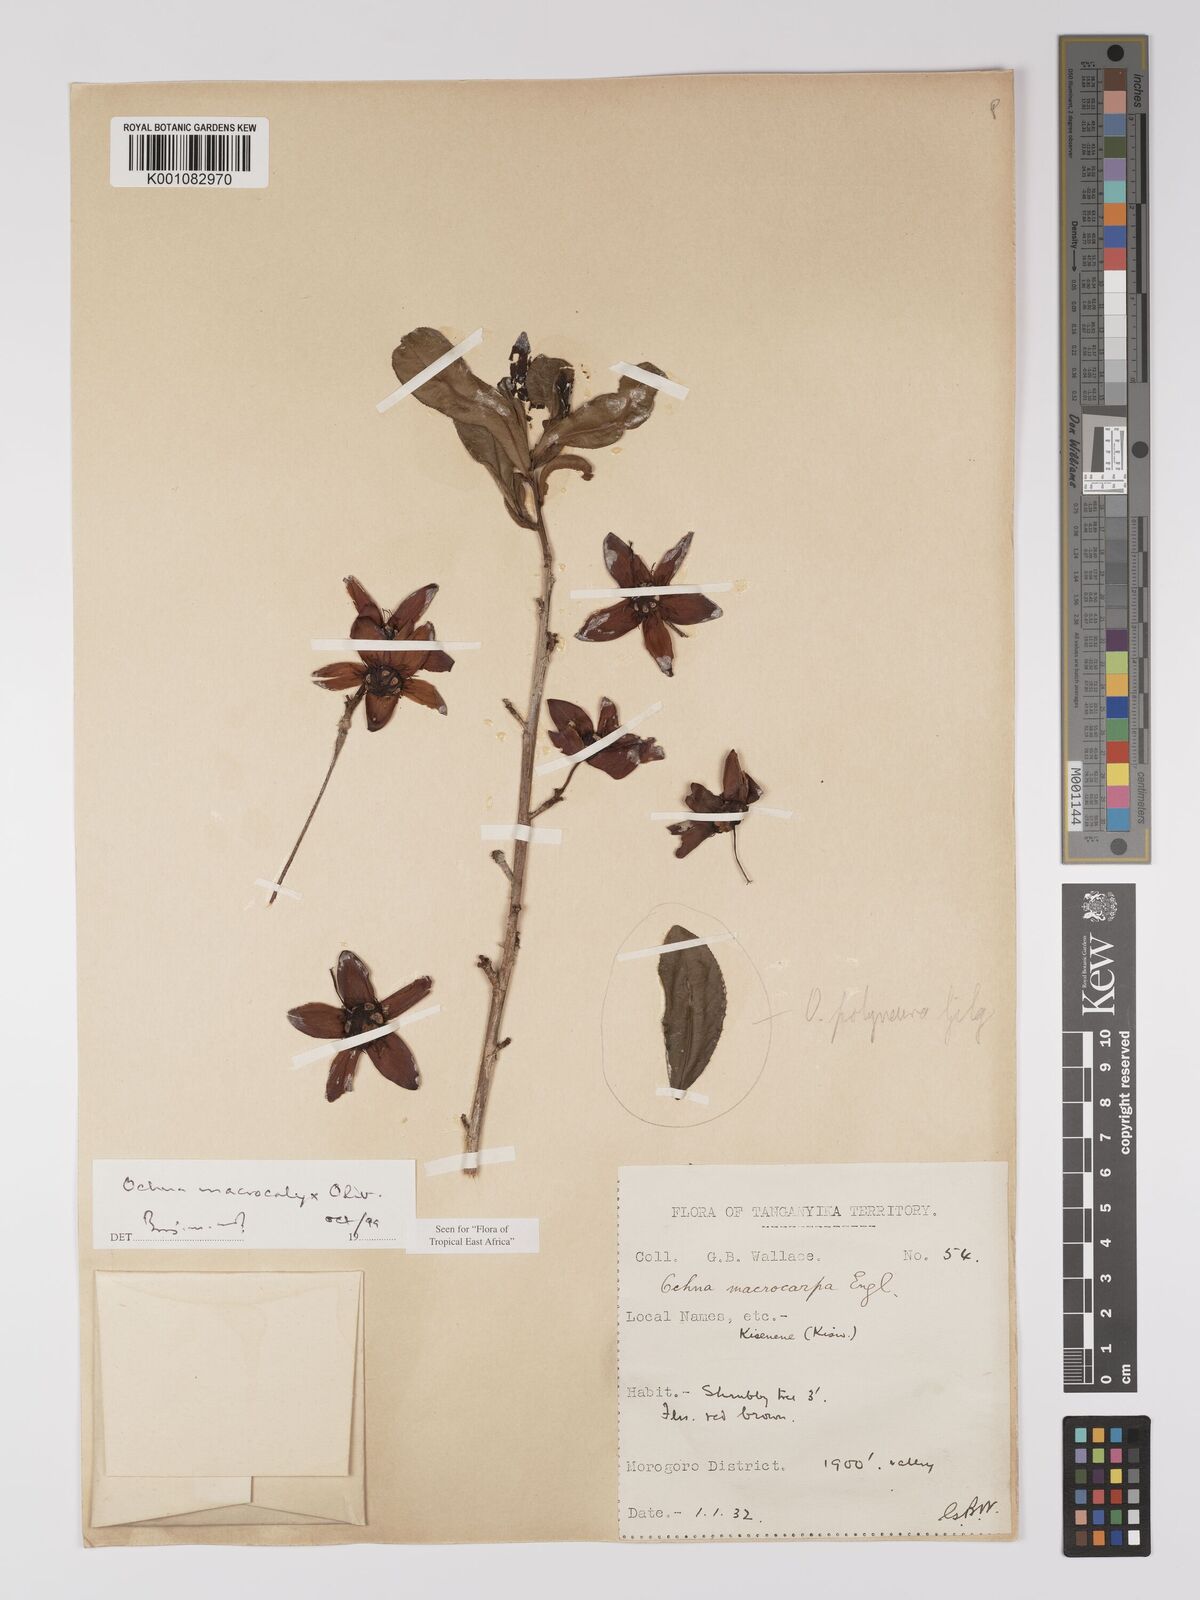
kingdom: Plantae
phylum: Tracheophyta
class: Magnoliopsida
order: Malpighiales
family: Ochnaceae
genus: Ochna
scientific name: Ochna macrocalyx
